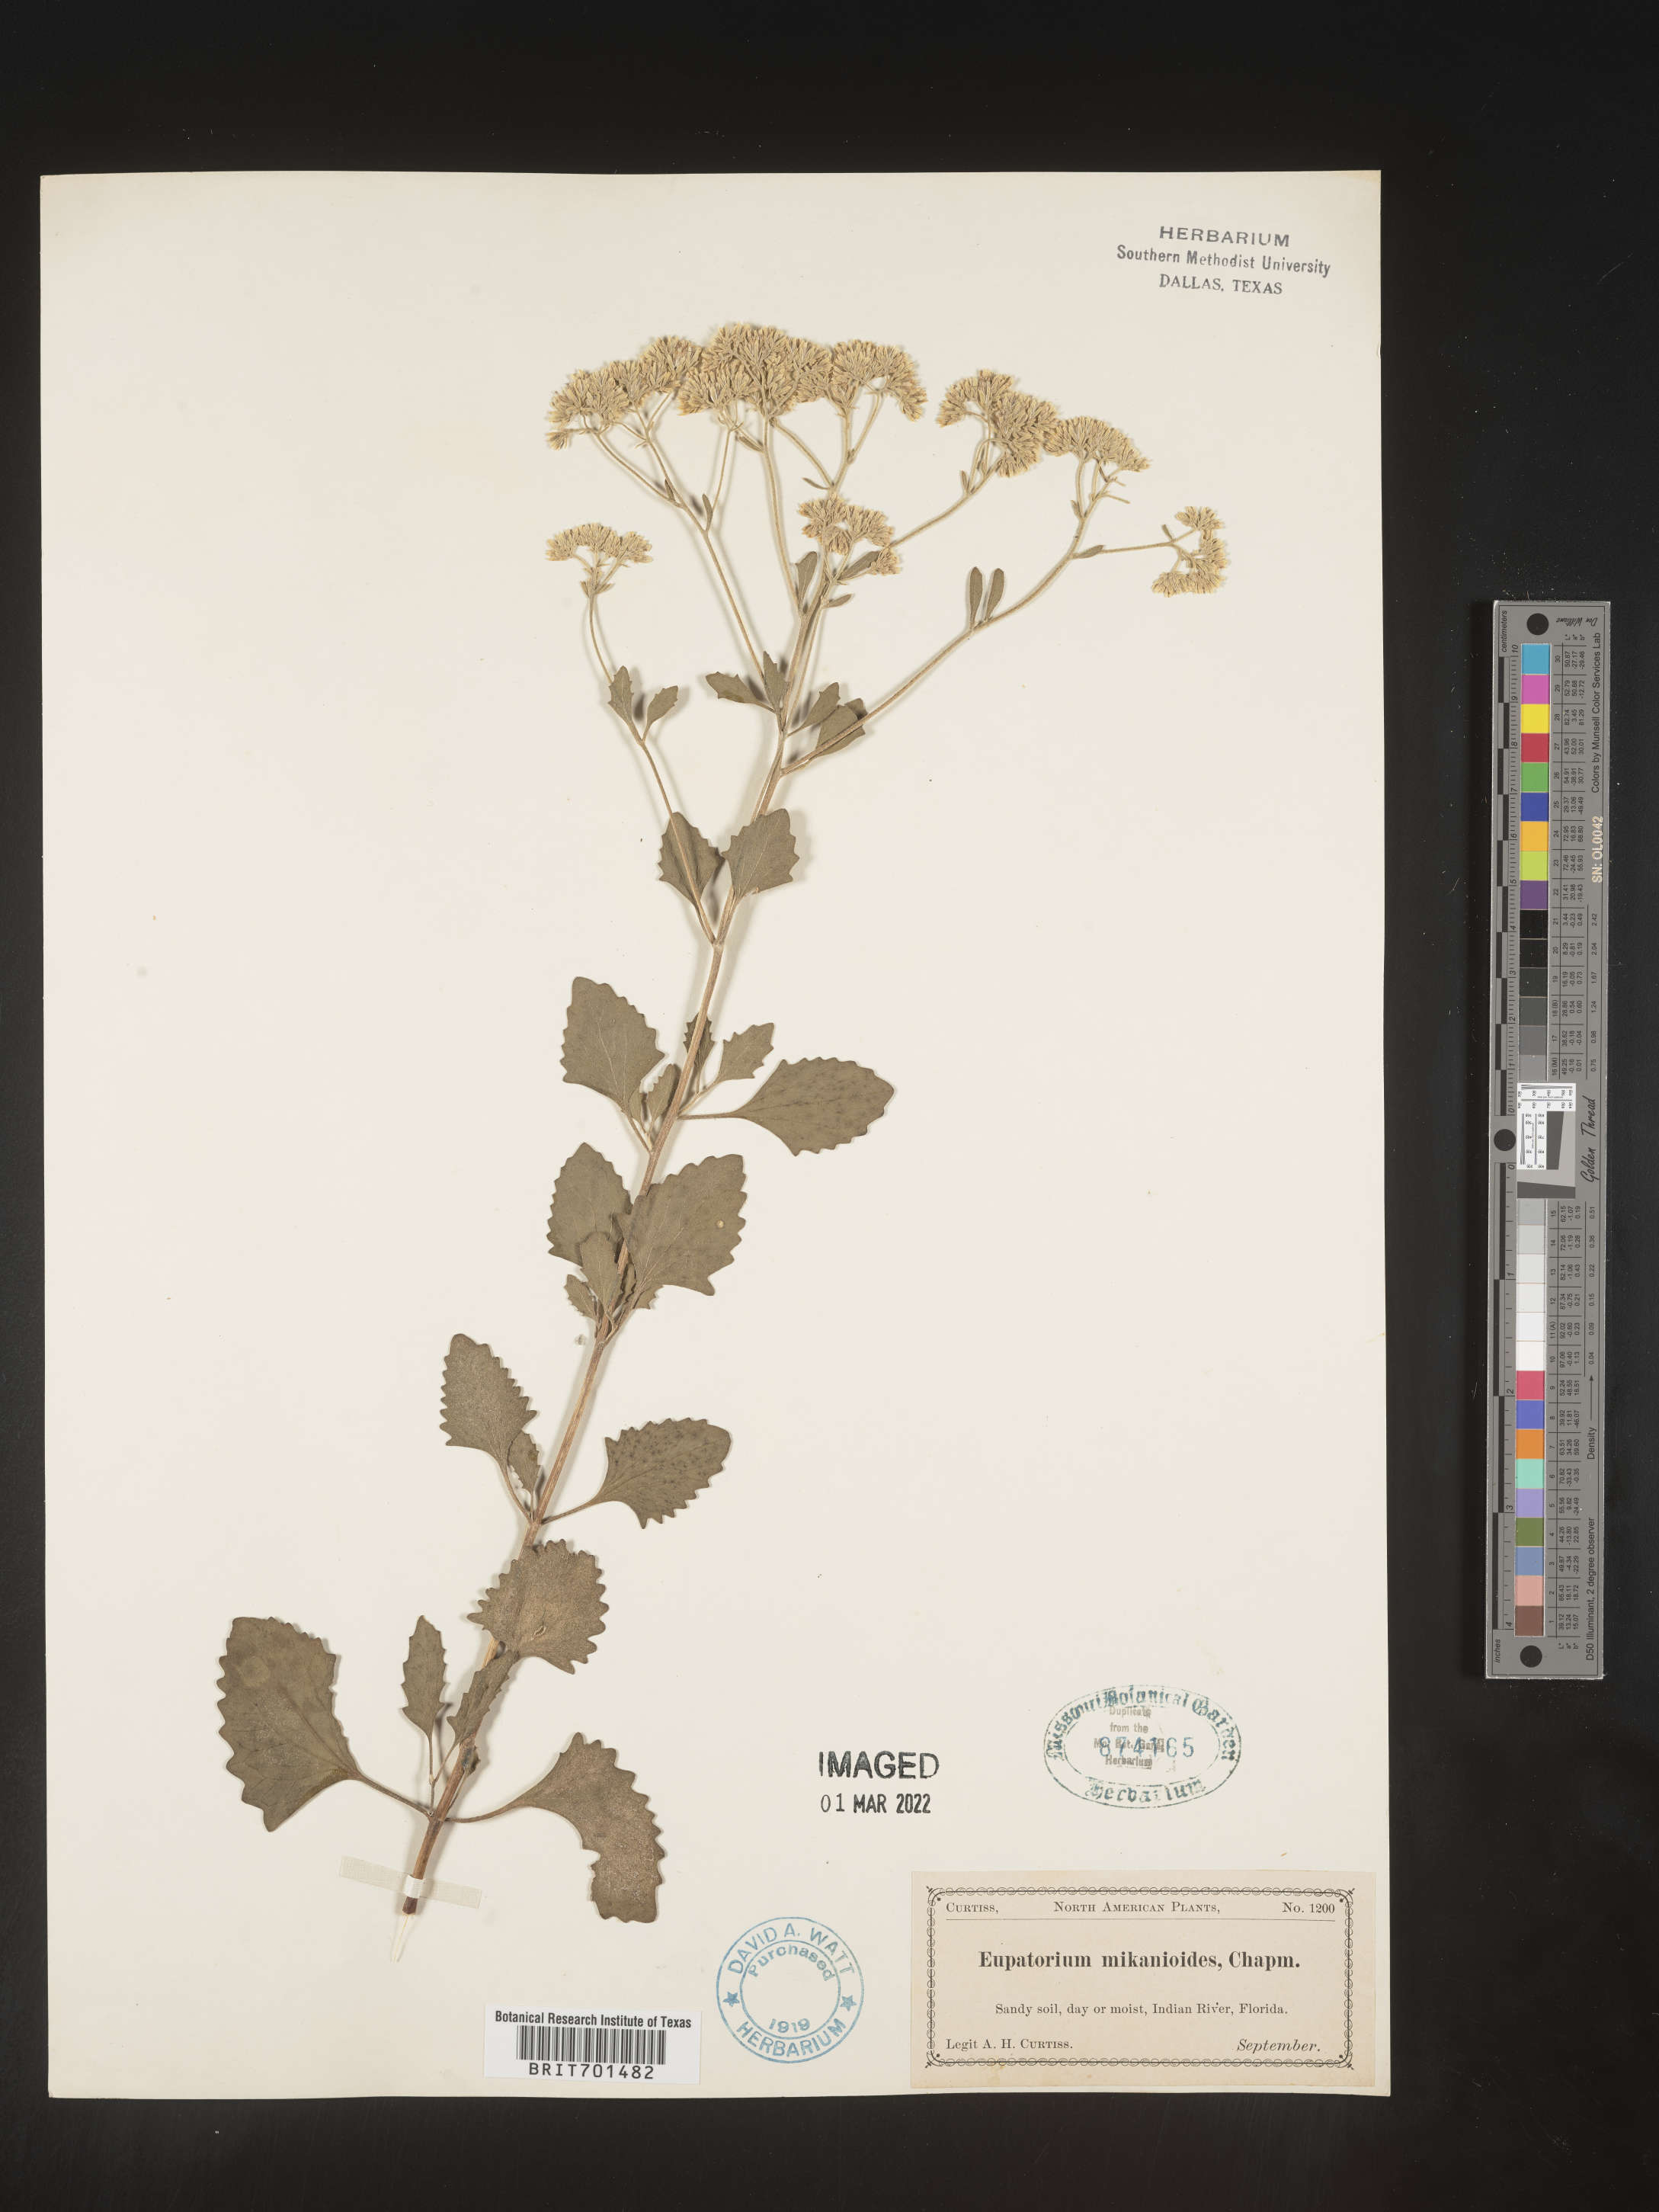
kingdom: Plantae
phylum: Tracheophyta
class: Magnoliopsida
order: Asterales
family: Asteraceae
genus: Eupatorium
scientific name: Eupatorium
